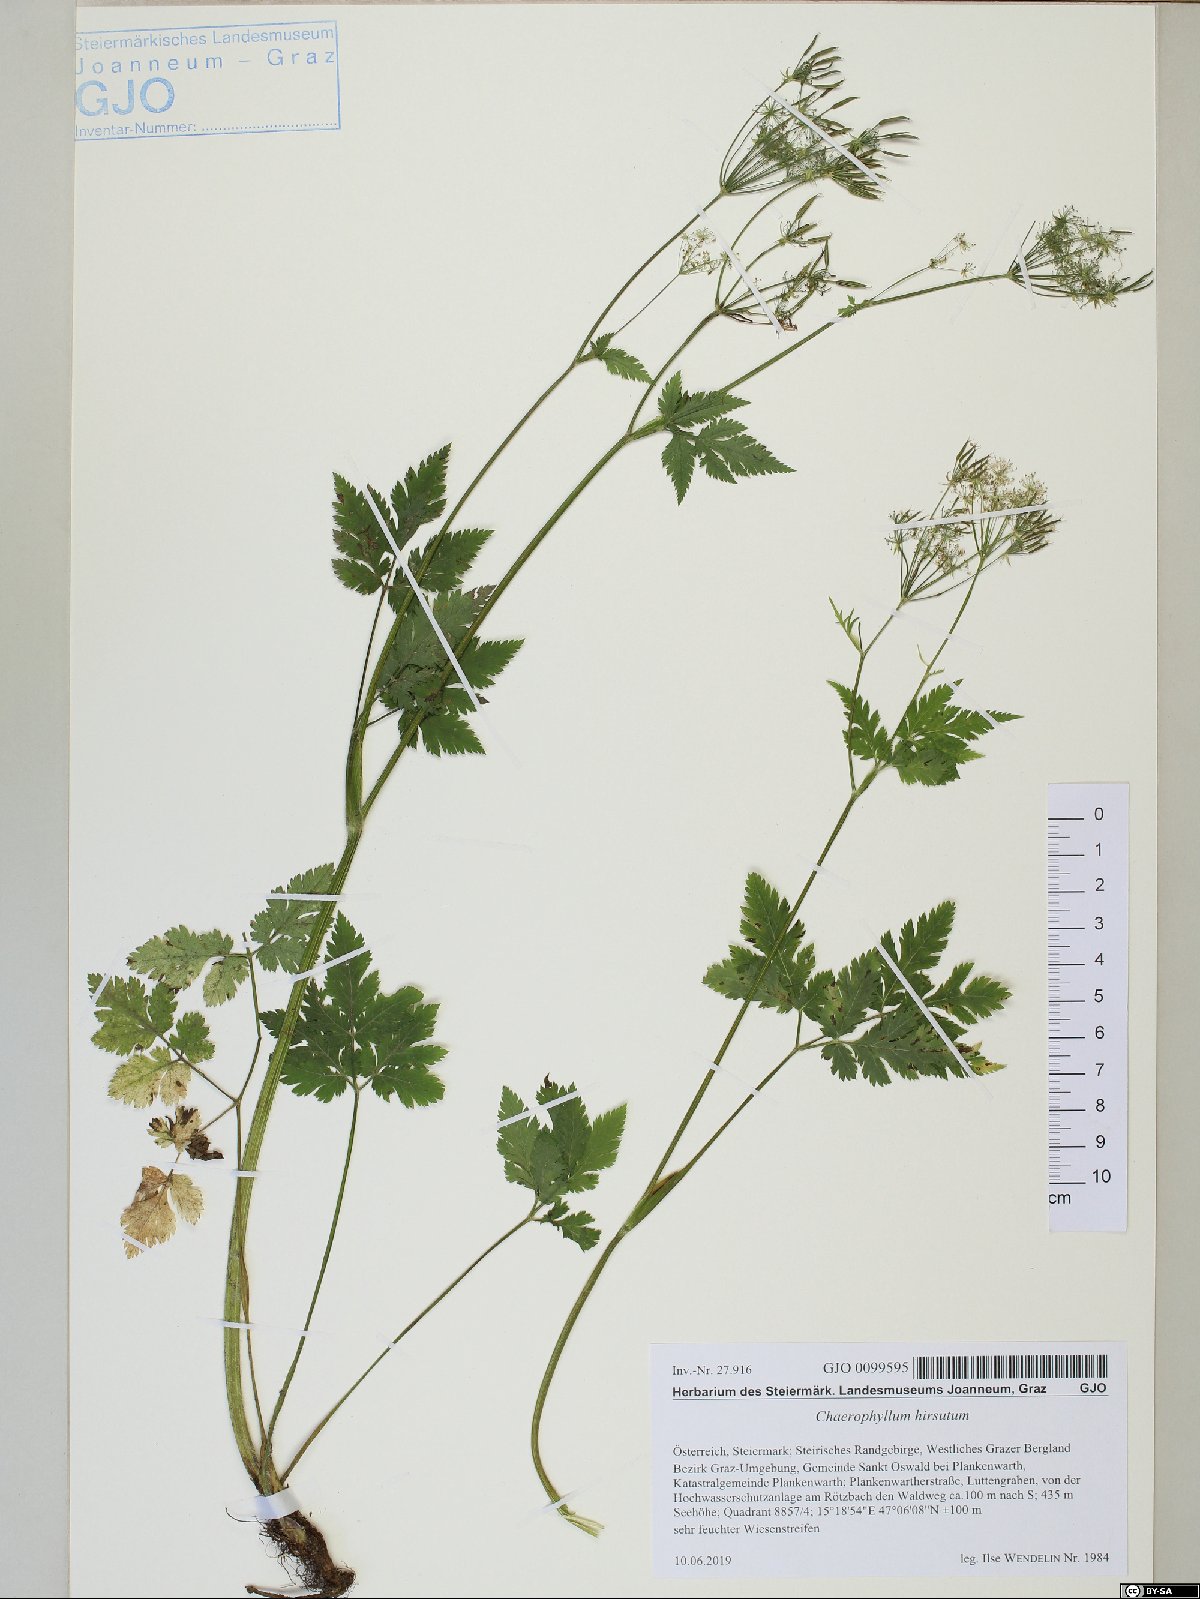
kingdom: Plantae
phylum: Tracheophyta
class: Magnoliopsida
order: Apiales
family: Apiaceae
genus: Chaerophyllum
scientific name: Chaerophyllum hirsutum
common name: Hairy chervil
